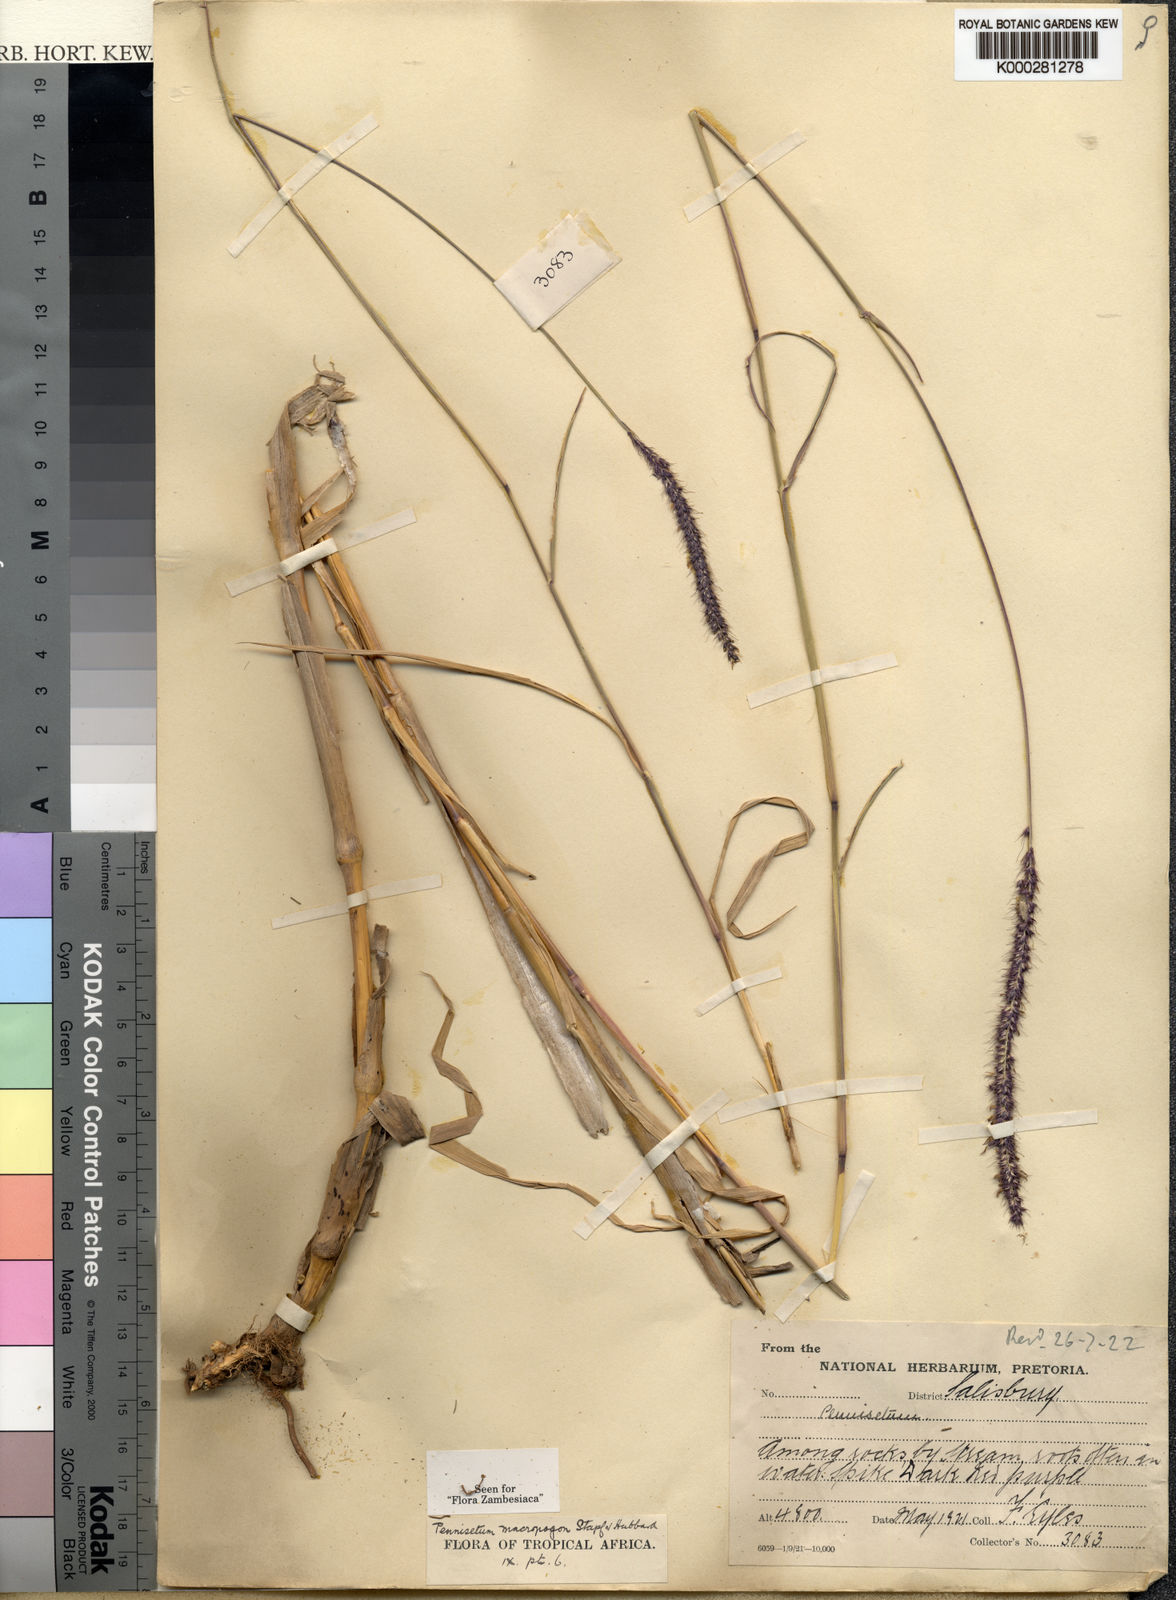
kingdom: Plantae
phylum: Tracheophyta
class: Liliopsida
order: Poales
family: Poaceae
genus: Cenchrus
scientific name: Cenchrus caudatus
